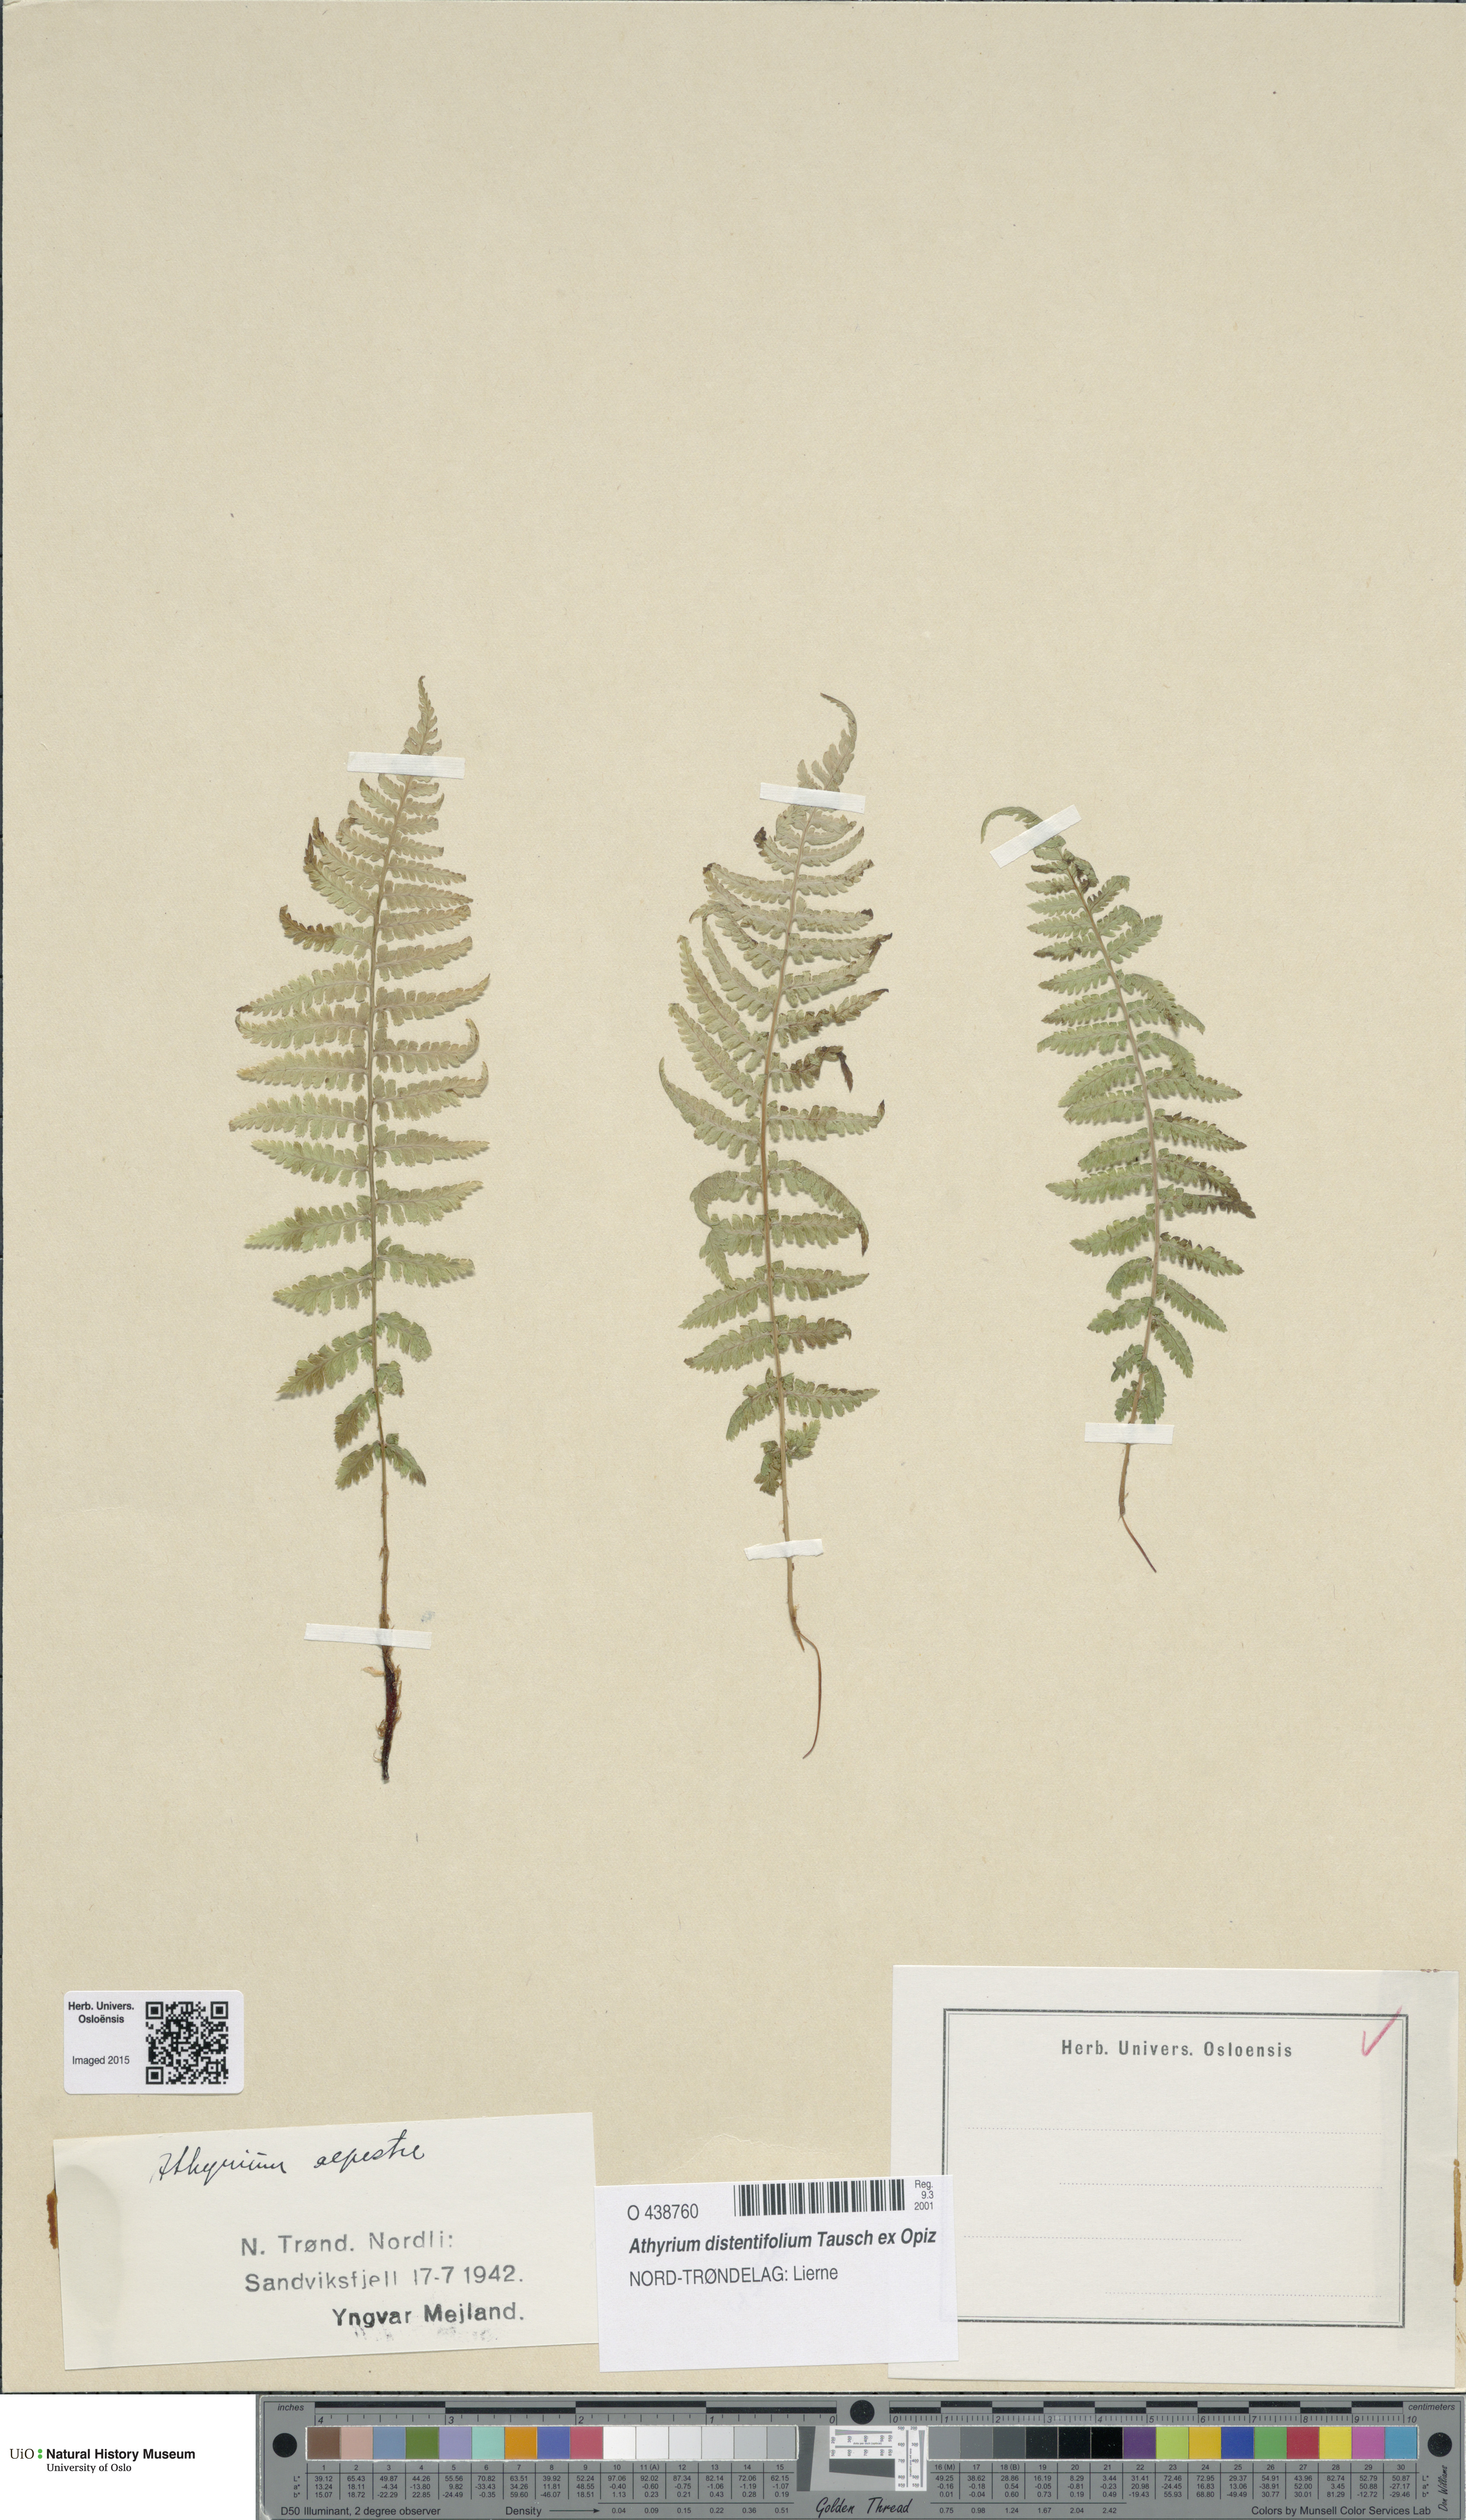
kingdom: Plantae
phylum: Tracheophyta
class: Polypodiopsida
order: Polypodiales
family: Athyriaceae
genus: Pseudathyrium
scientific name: Pseudathyrium alpestre
